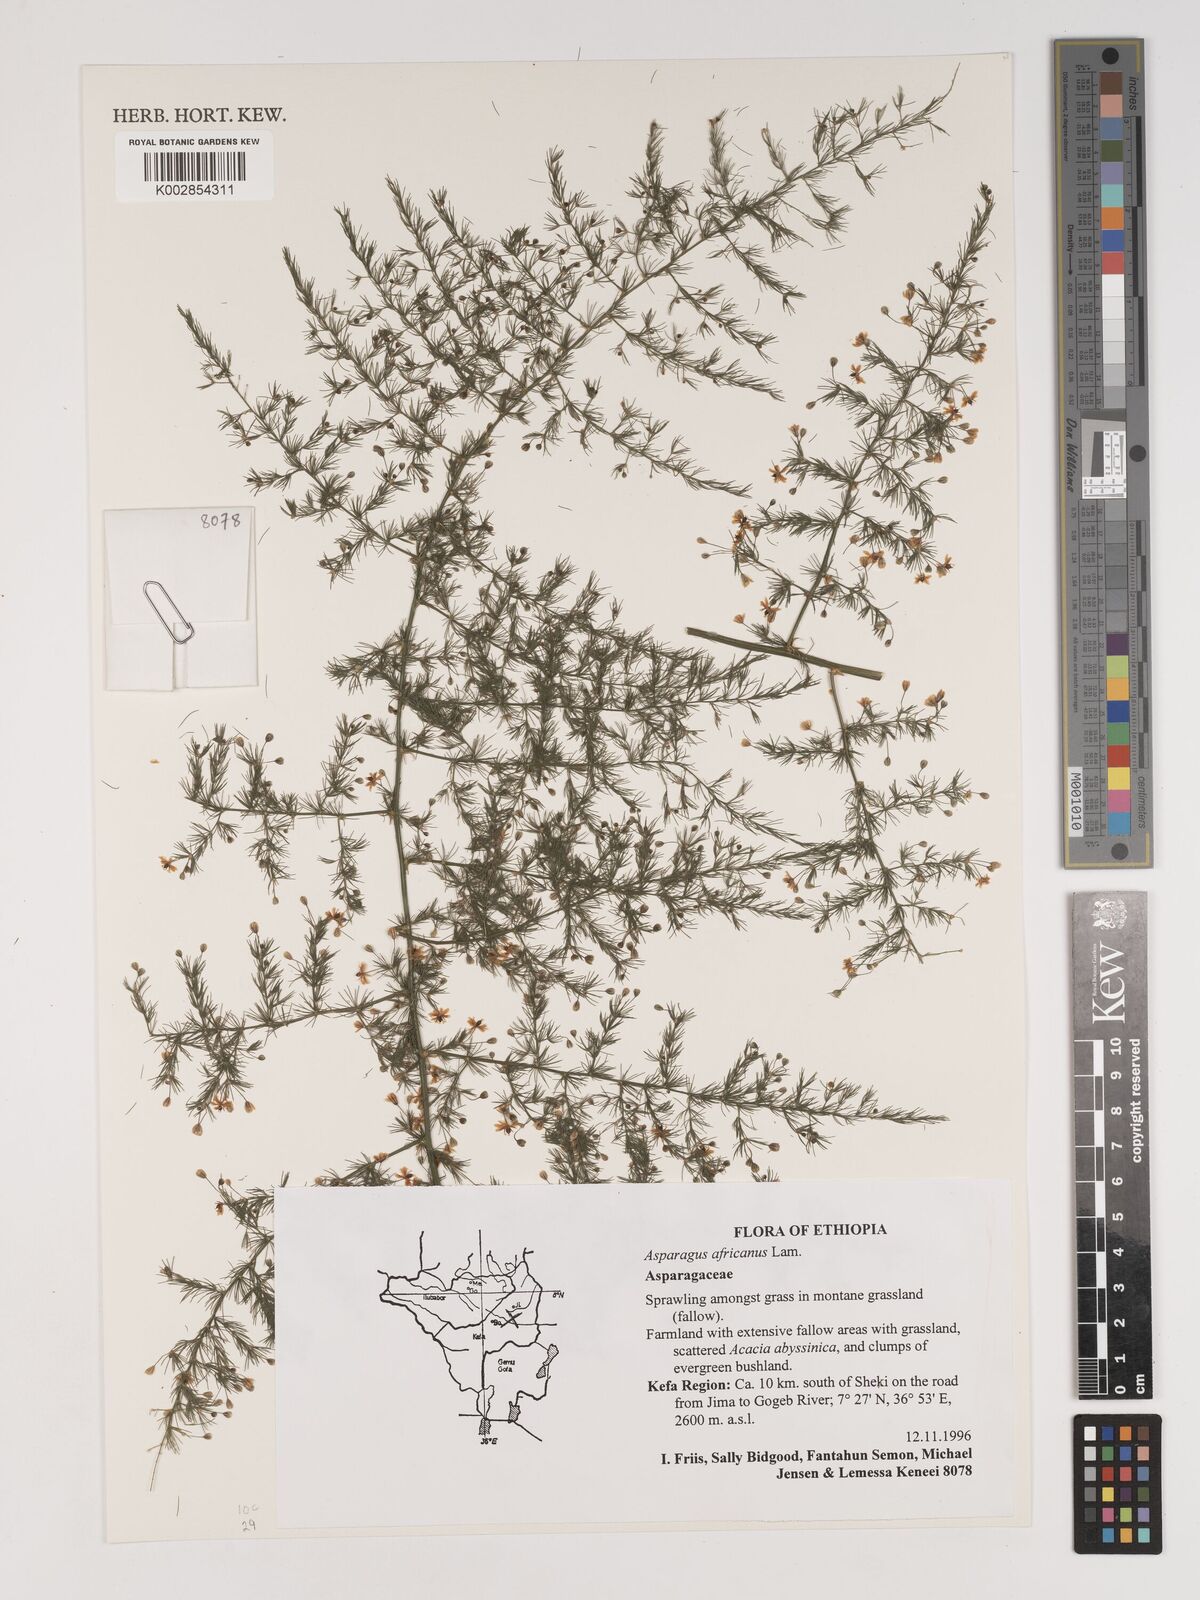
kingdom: Plantae
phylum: Tracheophyta
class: Liliopsida
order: Asparagales
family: Asparagaceae
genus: Asparagus
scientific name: Asparagus africanus
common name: Asparagus-fern
